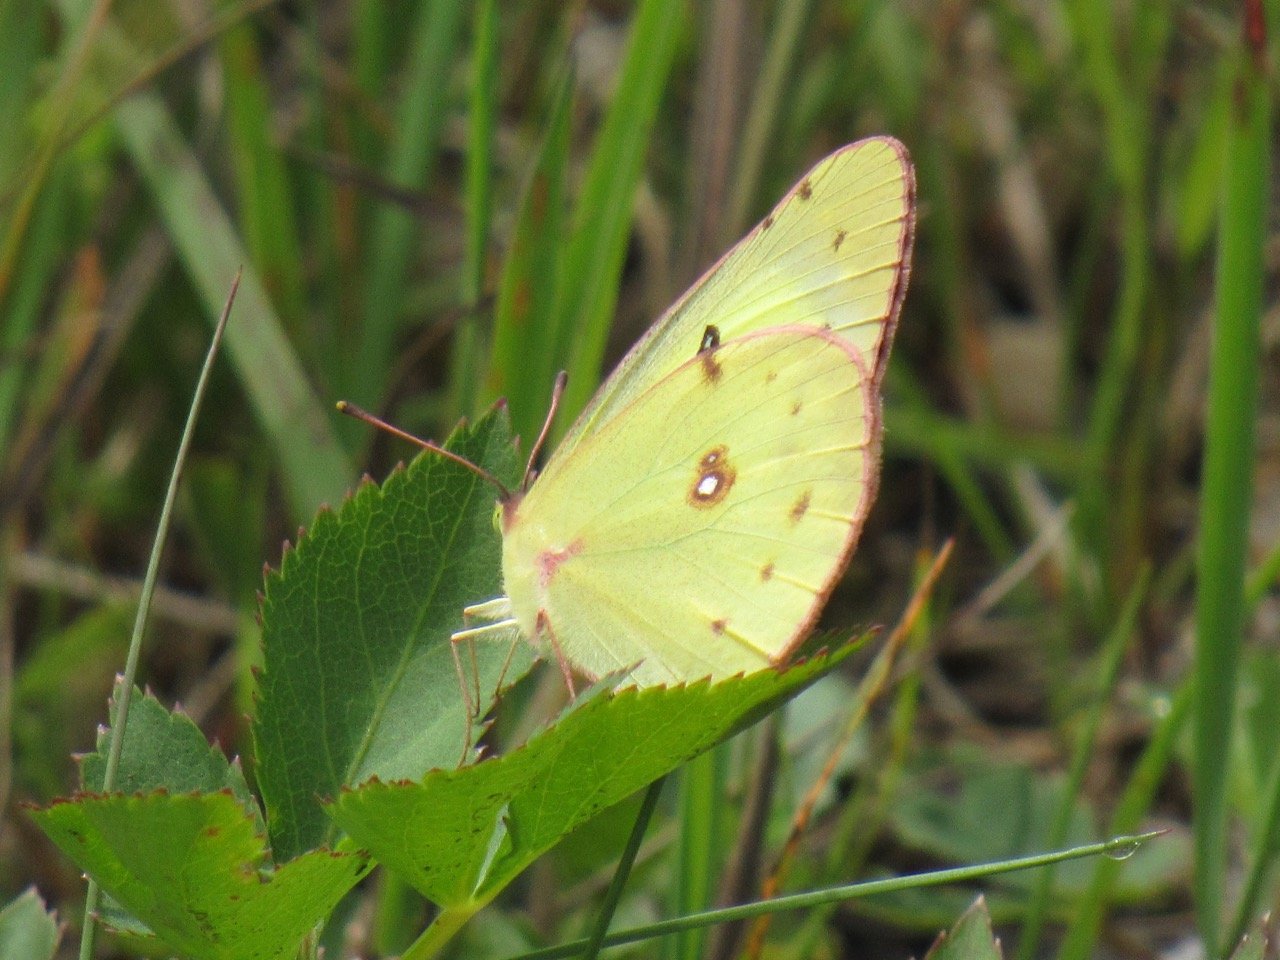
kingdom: Animalia
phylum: Arthropoda
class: Insecta
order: Lepidoptera
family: Pieridae
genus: Colias
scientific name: Colias philodice
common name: Clouded Sulphur
